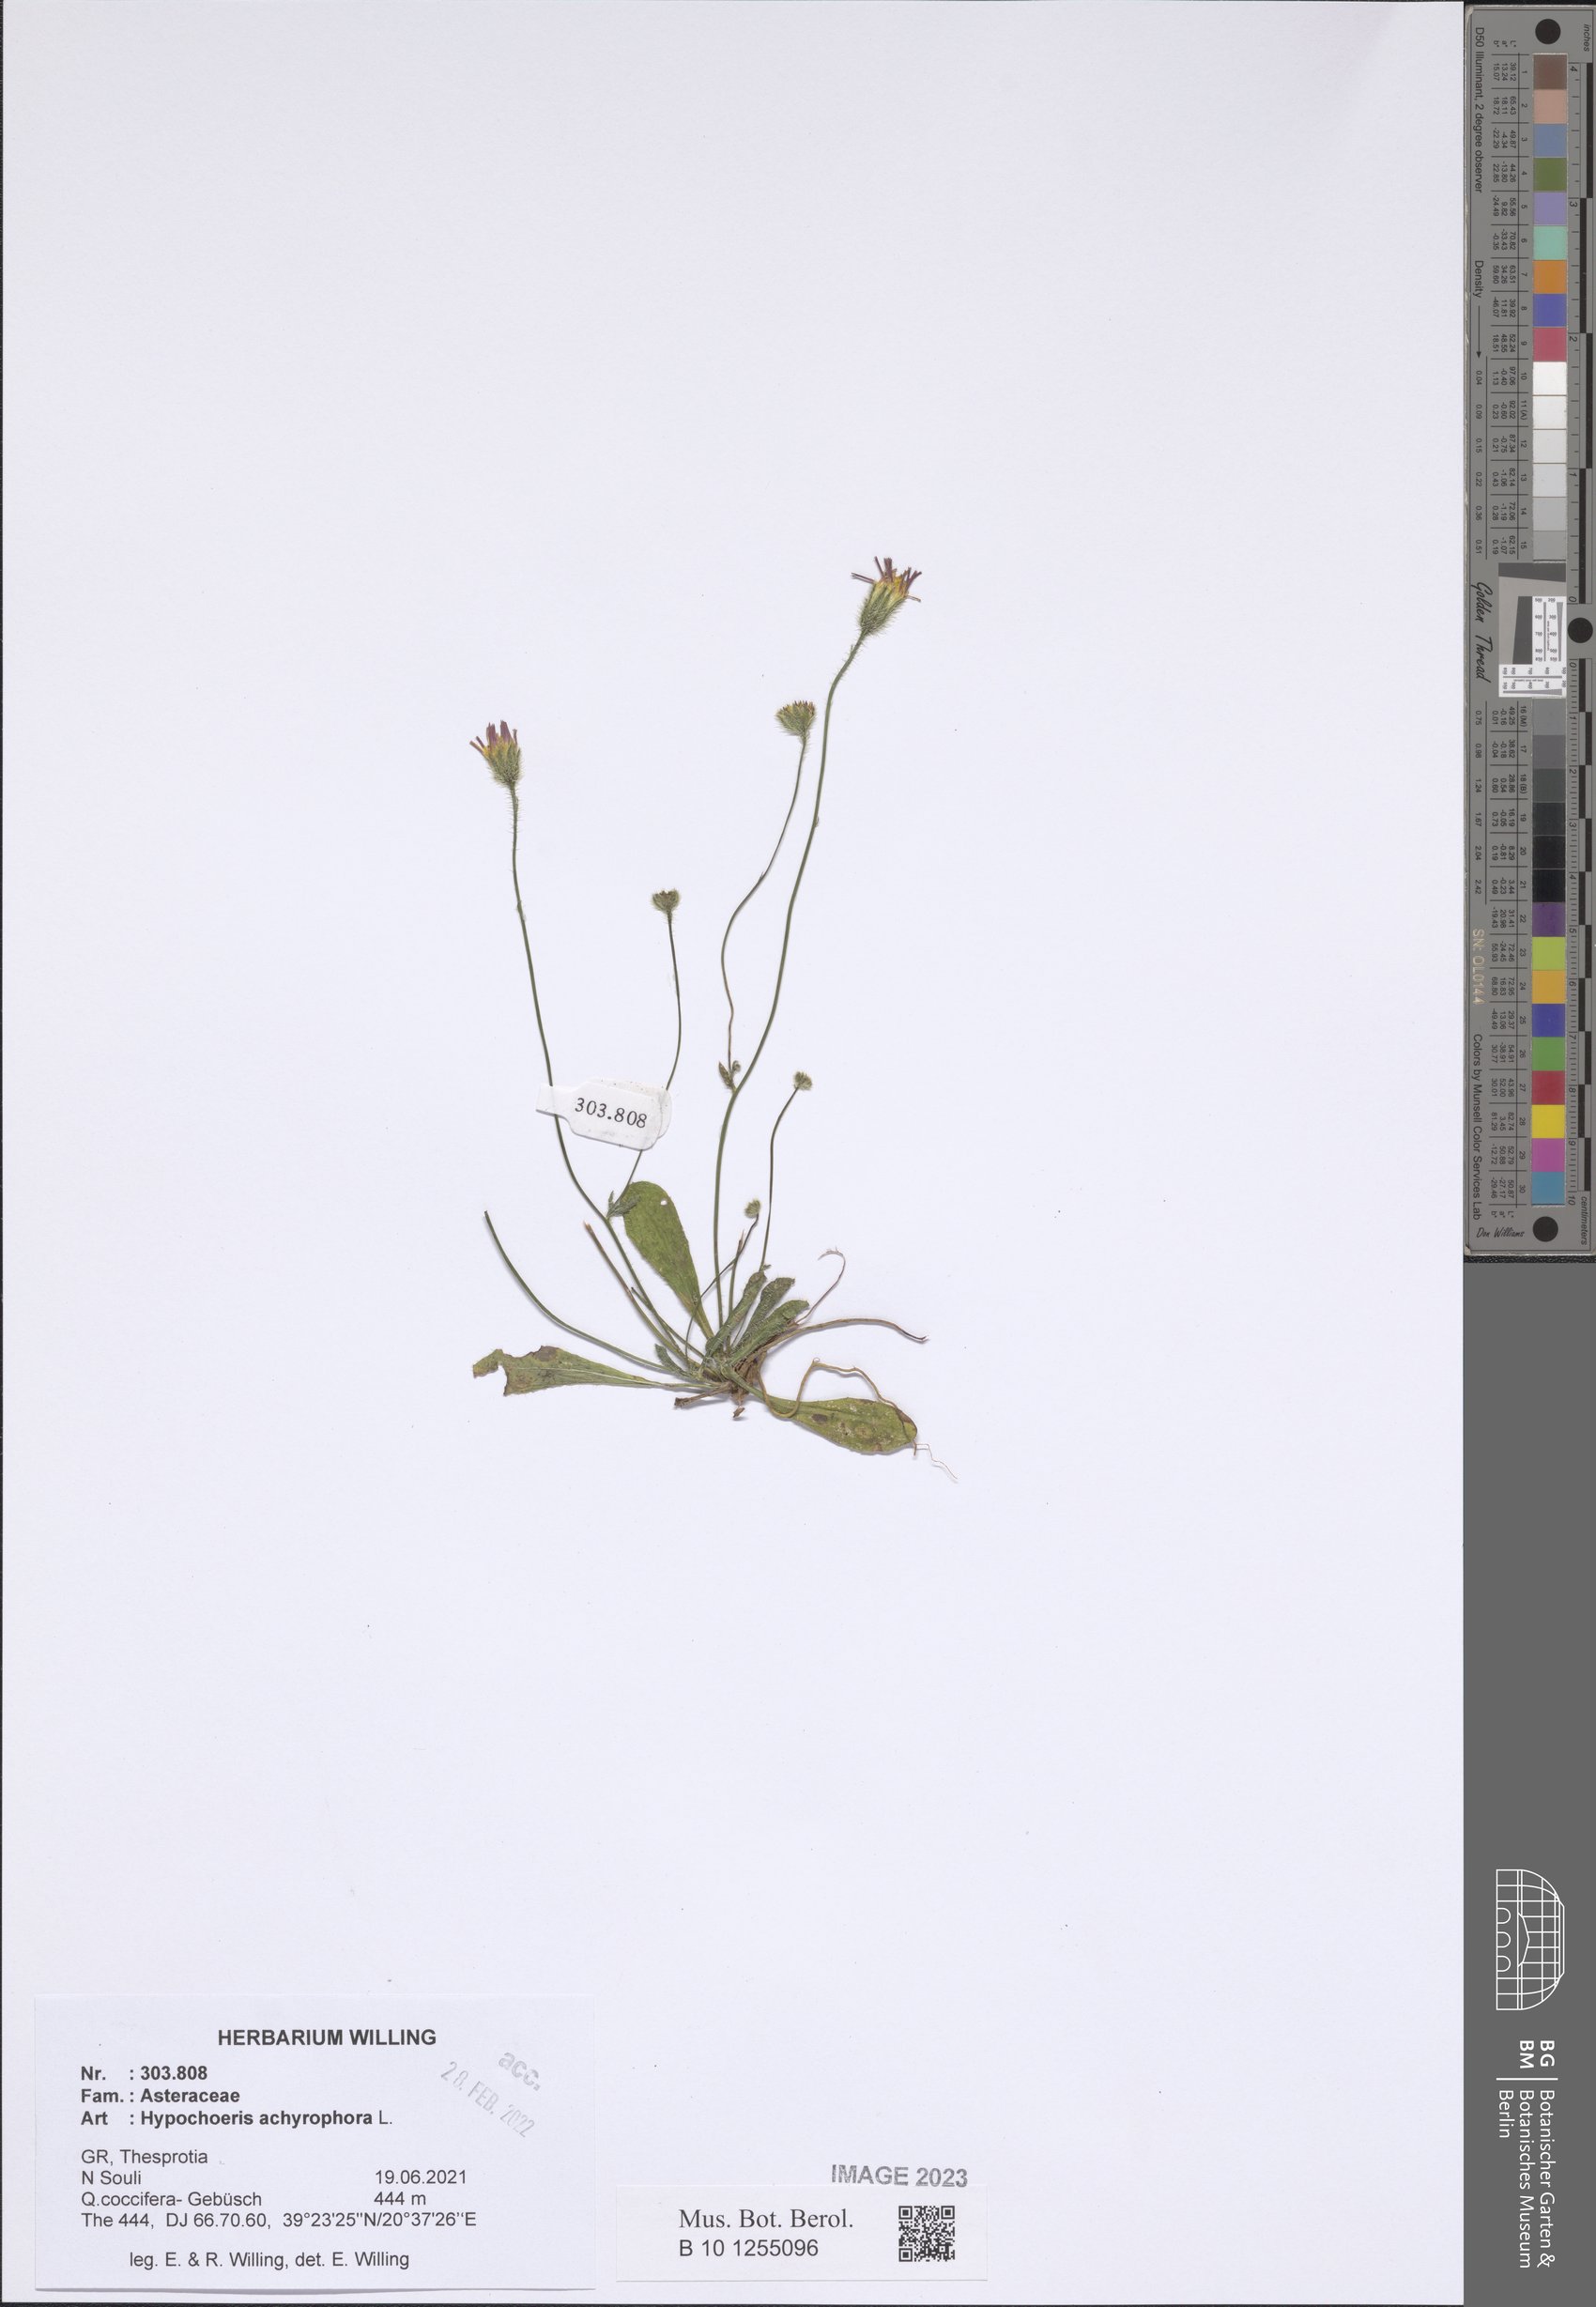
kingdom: Plantae
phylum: Tracheophyta
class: Magnoliopsida
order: Asterales
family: Asteraceae
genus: Achyrophorus
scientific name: Achyrophorus valdesii
